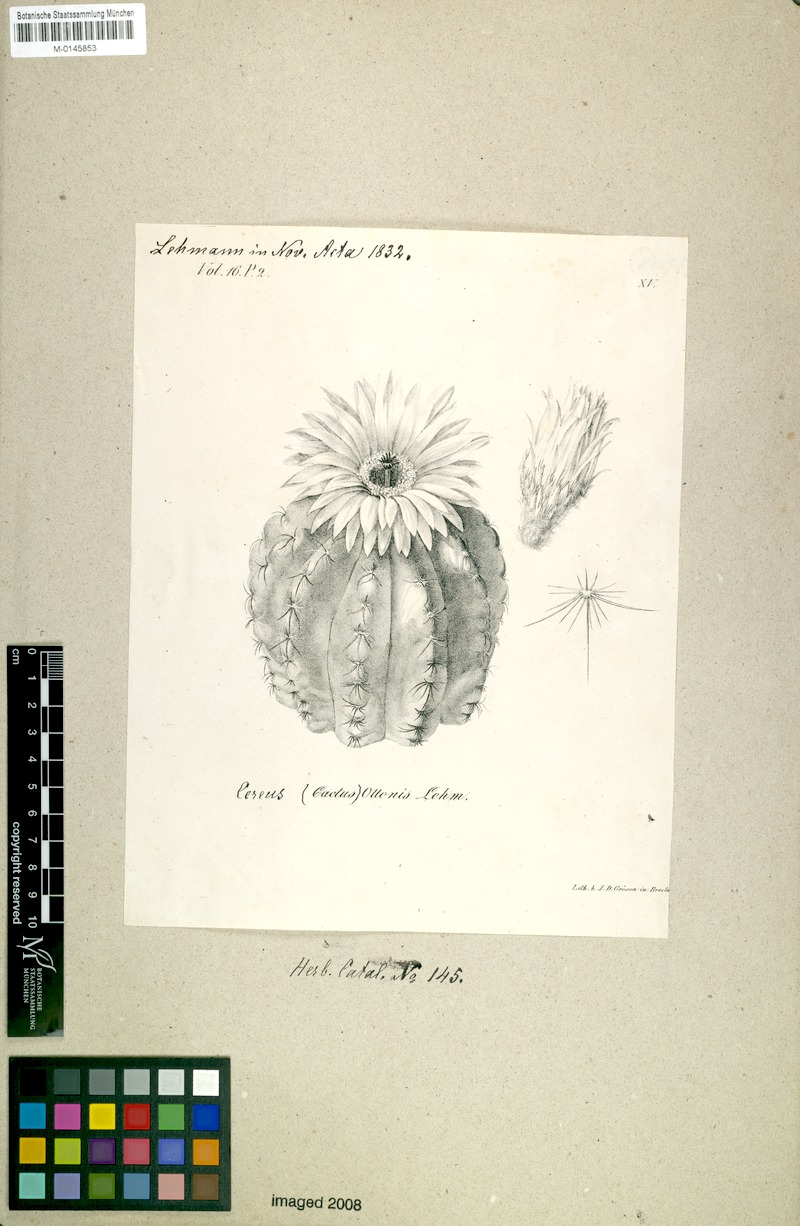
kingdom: Plantae
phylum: Tracheophyta
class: Magnoliopsida
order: Caryophyllales
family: Cactaceae
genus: Parodia
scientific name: Parodia ottonis
